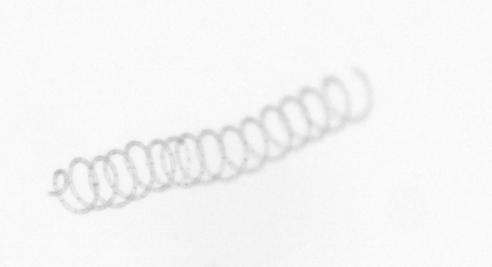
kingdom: Chromista
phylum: Ochrophyta
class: Bacillariophyceae
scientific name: Bacillariophyceae
